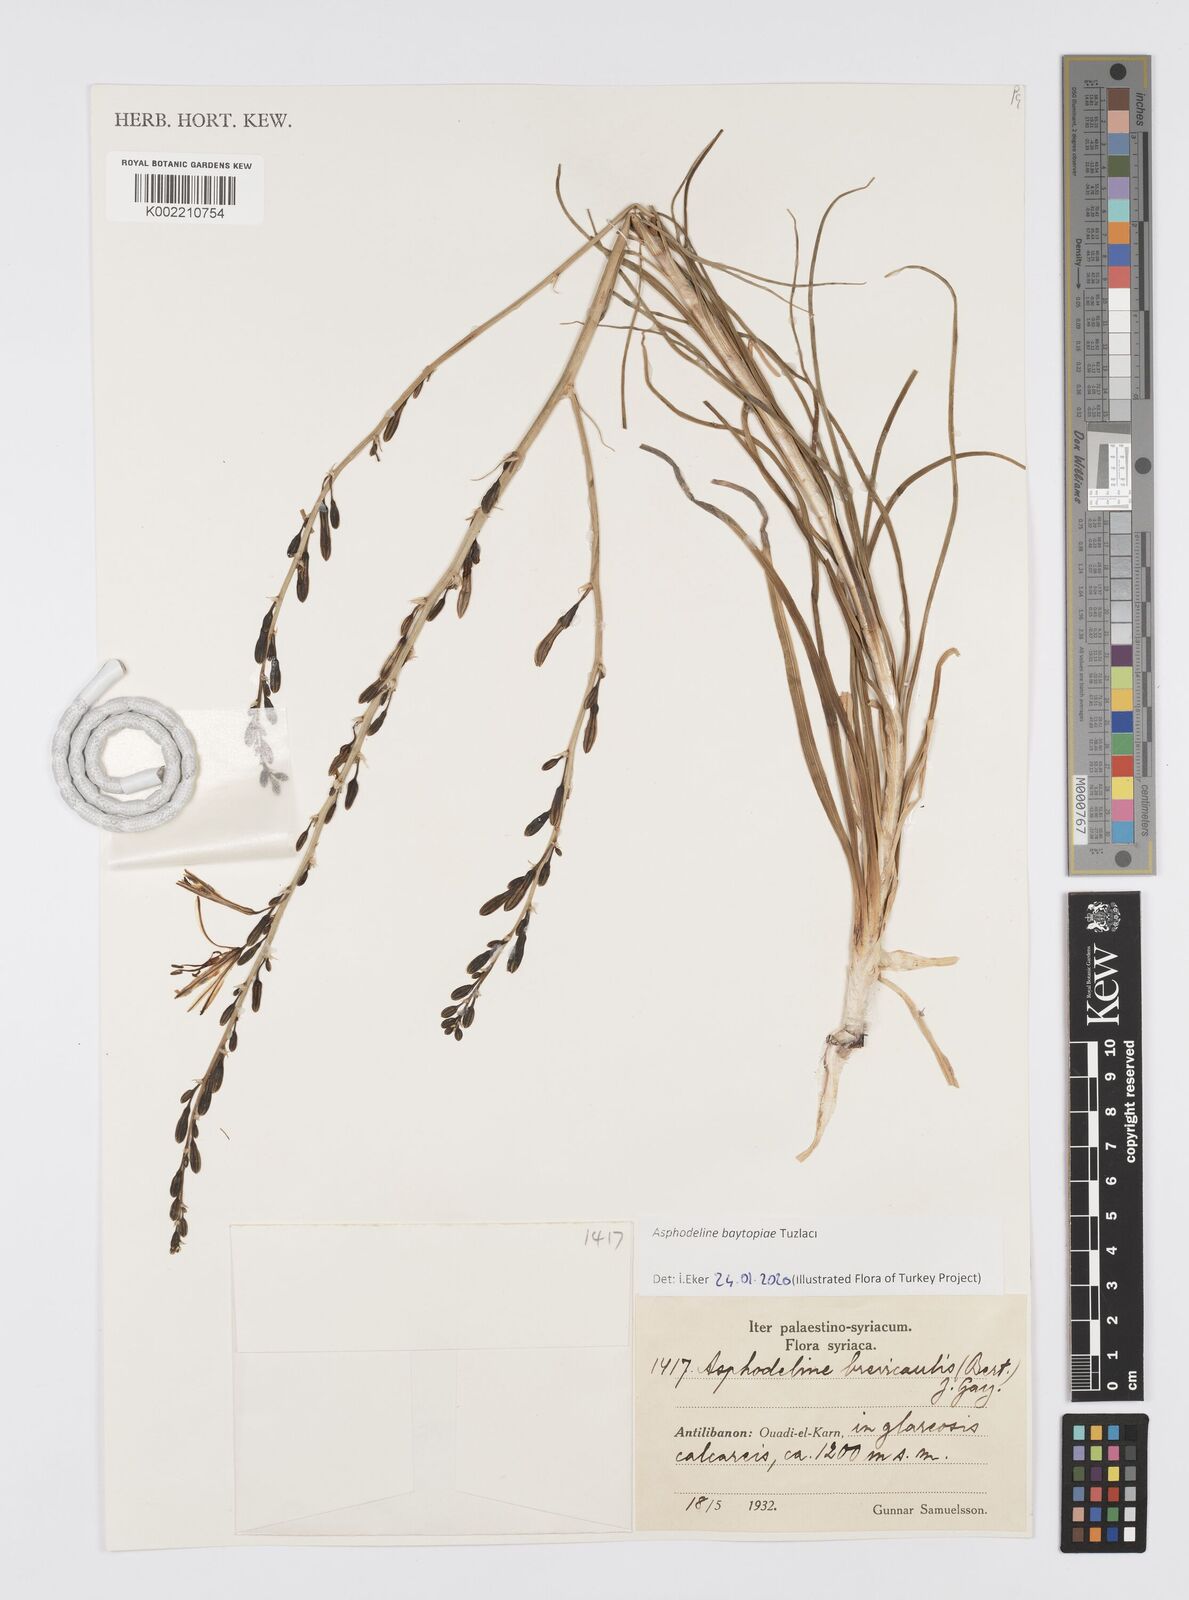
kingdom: Plantae
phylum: Tracheophyta
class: Liliopsida
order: Asparagales
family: Asphodelaceae
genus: Asphodeline
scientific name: Asphodeline baytopiae
